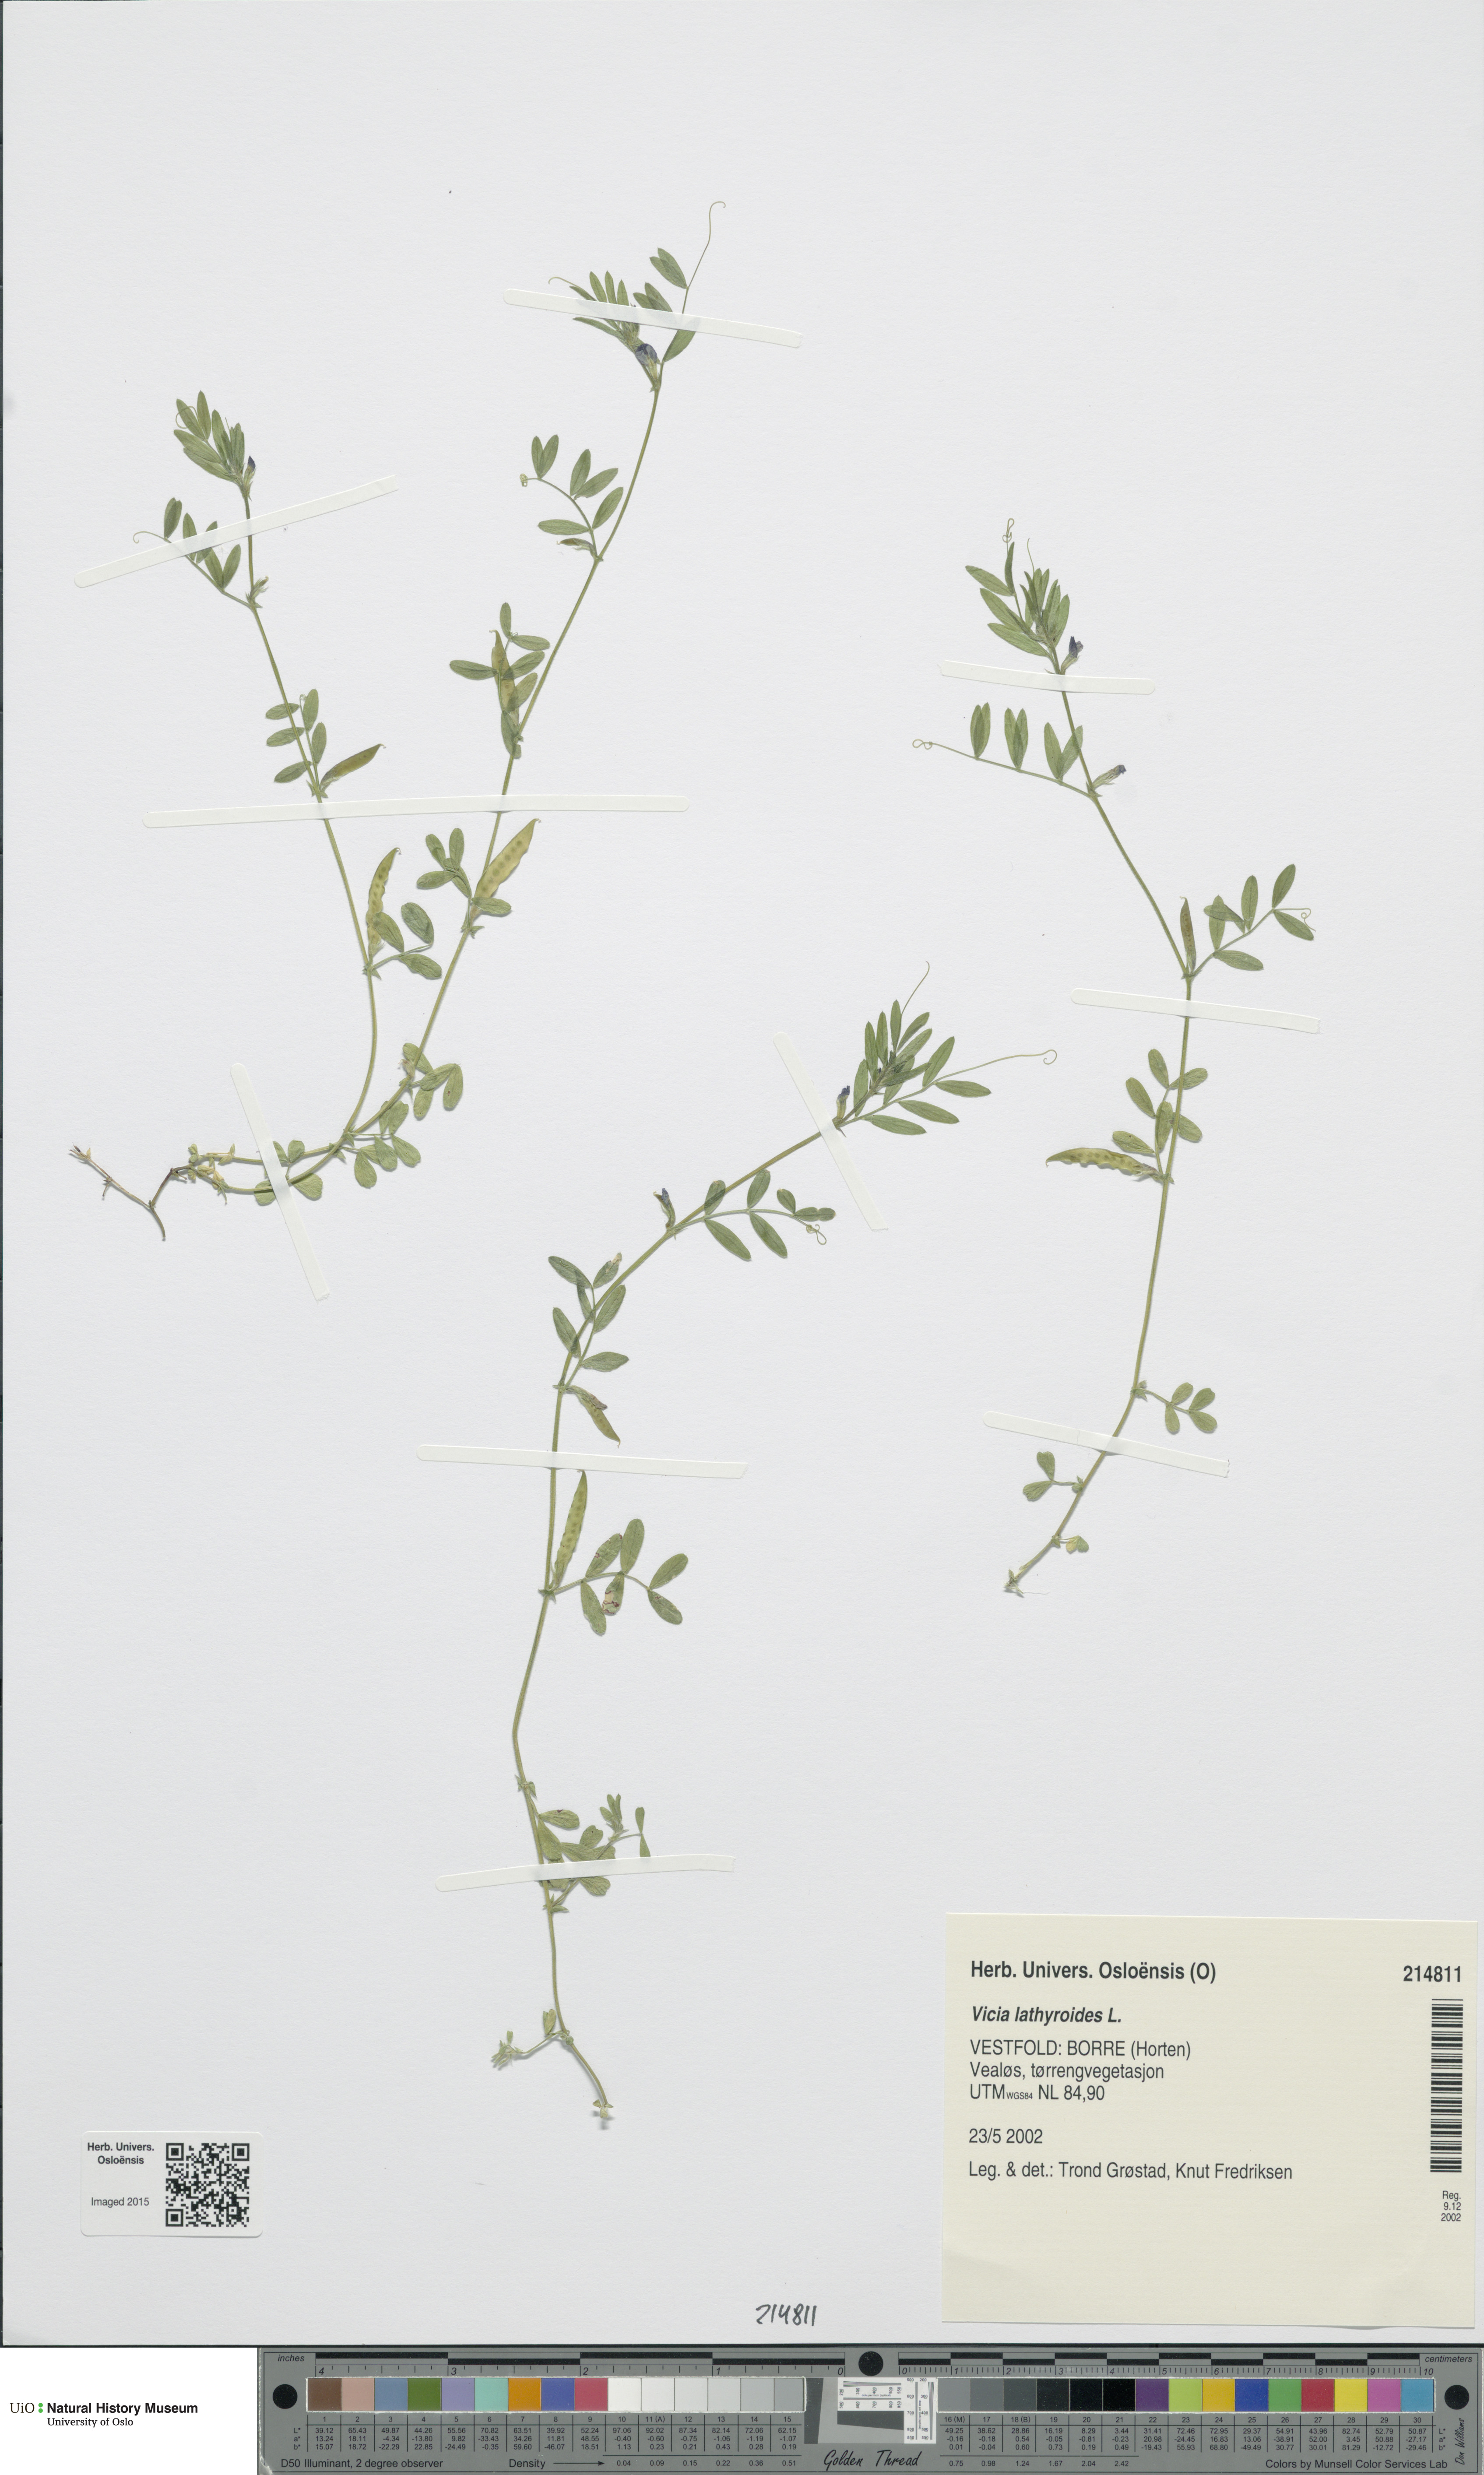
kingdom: Plantae
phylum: Tracheophyta
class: Magnoliopsida
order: Fabales
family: Fabaceae
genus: Vicia
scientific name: Vicia lathyroides
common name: Spring vetch
